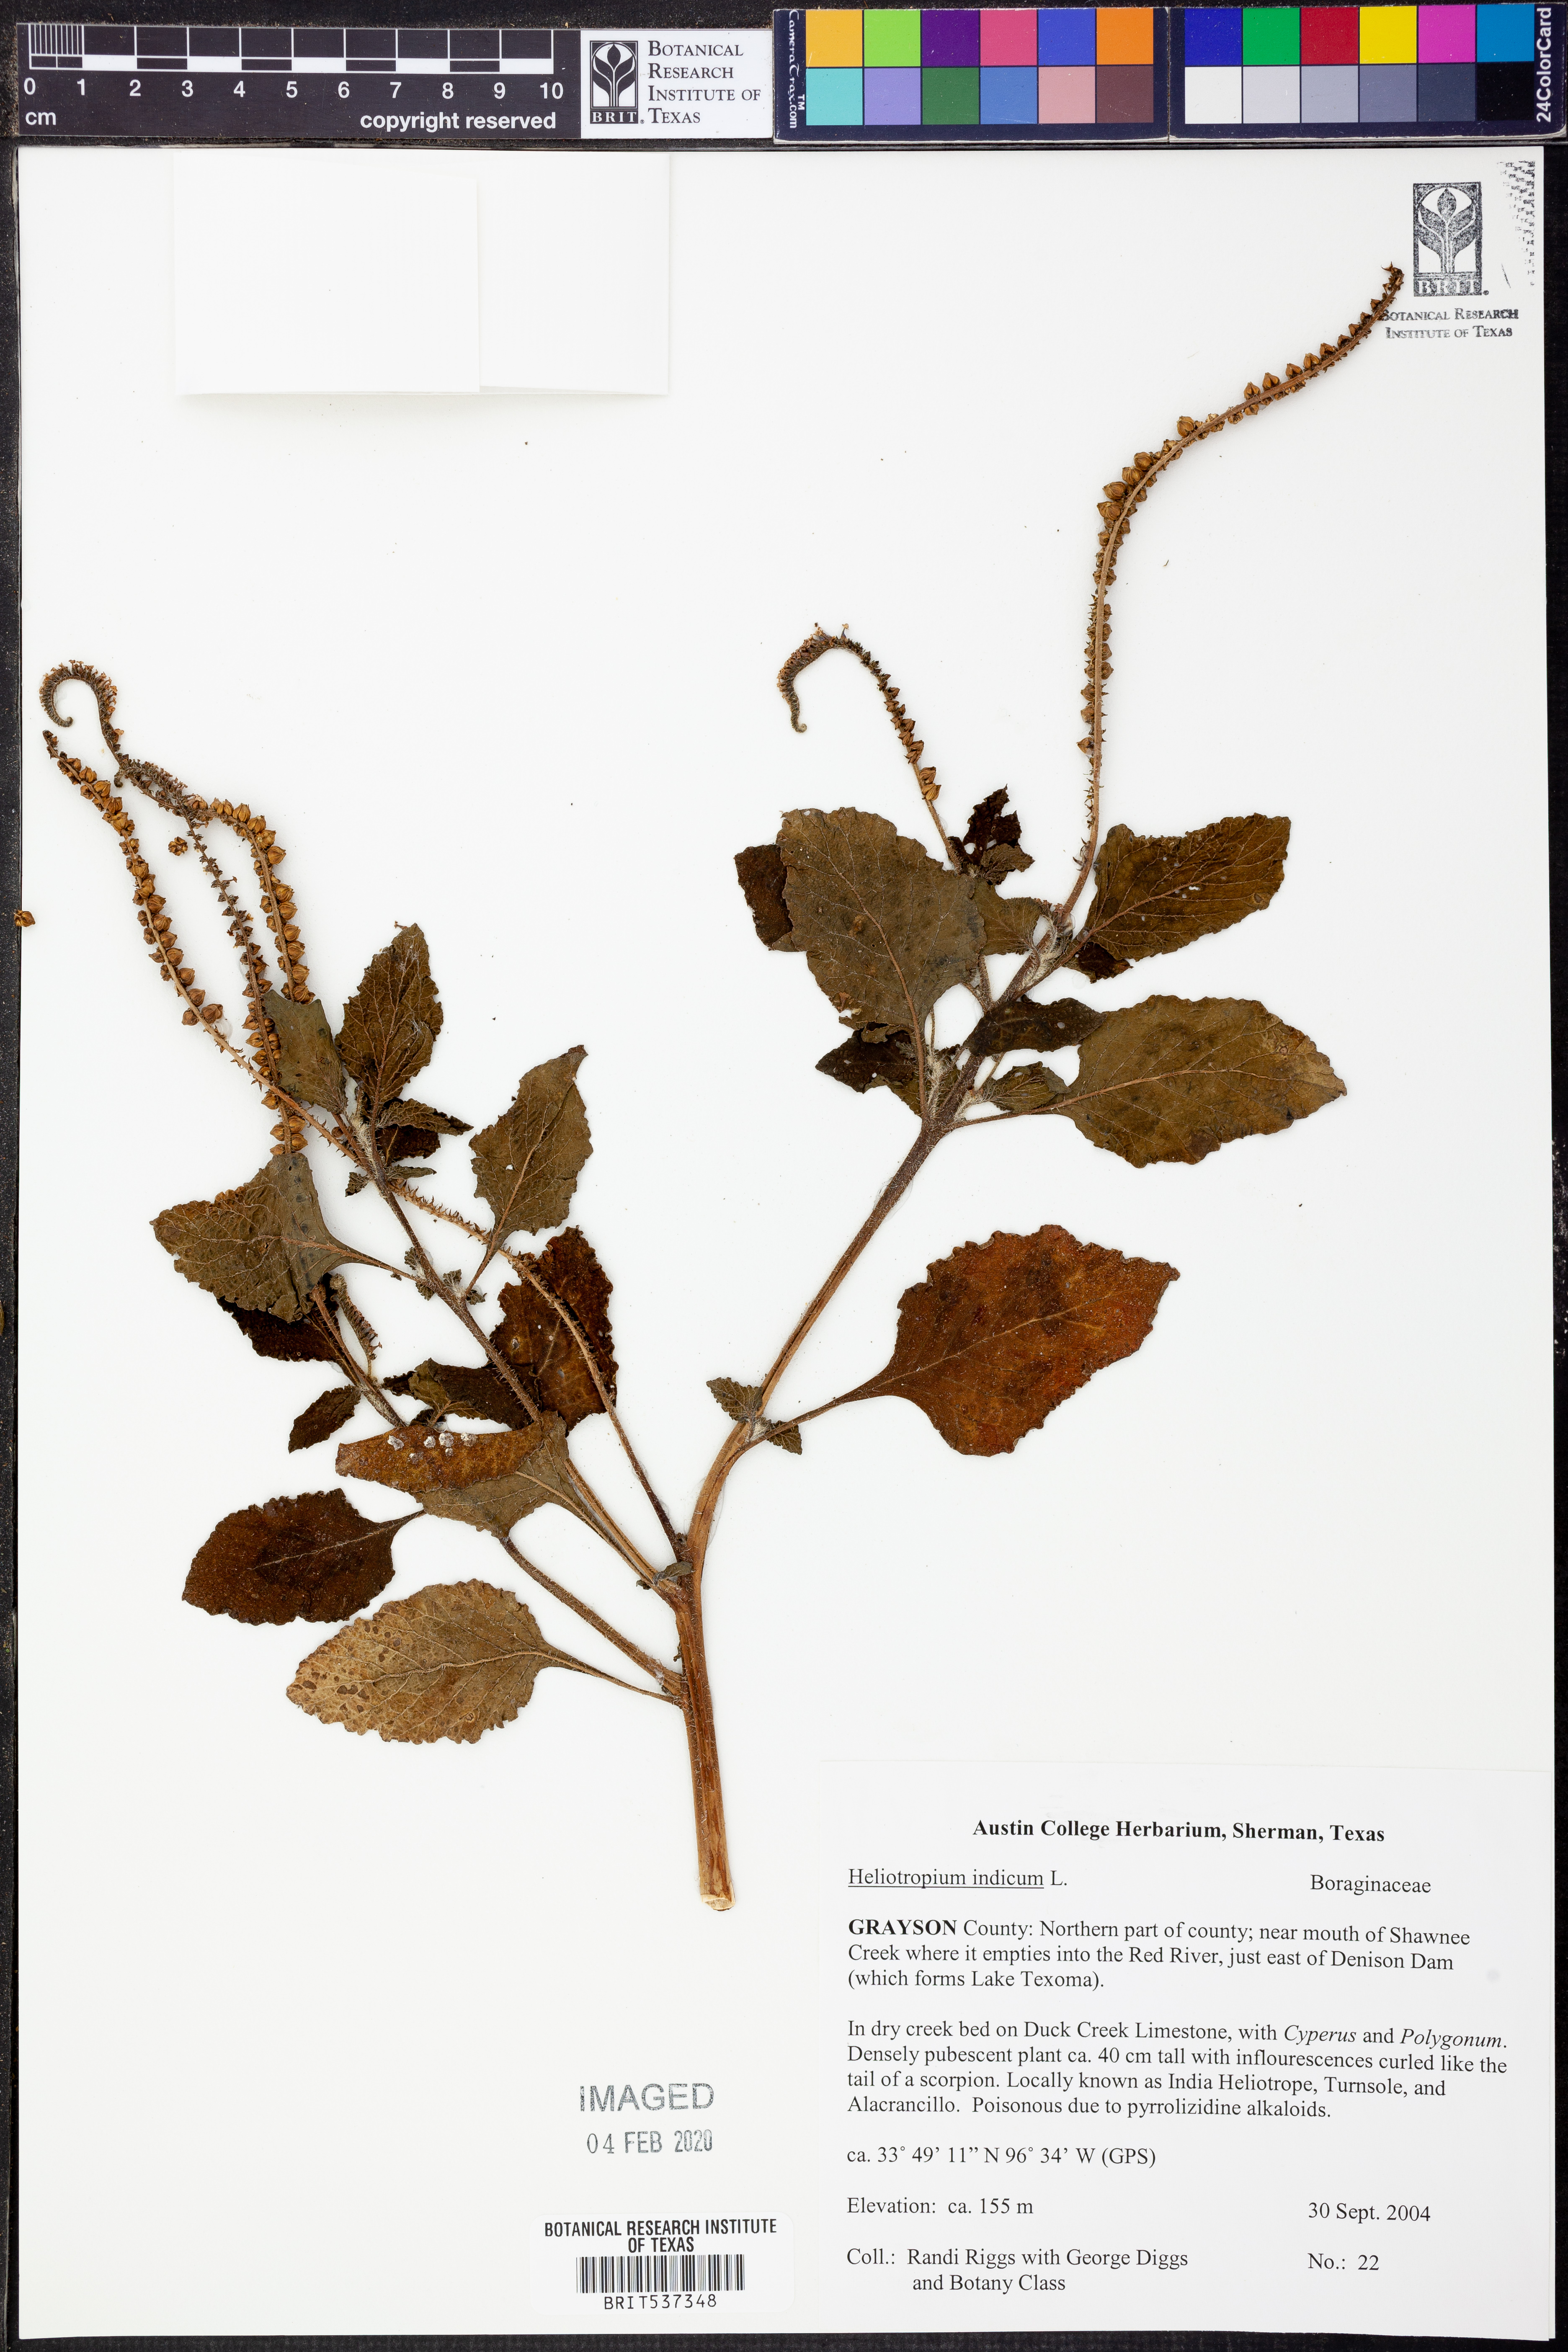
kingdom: Plantae
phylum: Tracheophyta
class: Magnoliopsida
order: Boraginales
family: Heliotropiaceae
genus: Heliotropium
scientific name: Heliotropium indicum
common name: Indian heliotrope
